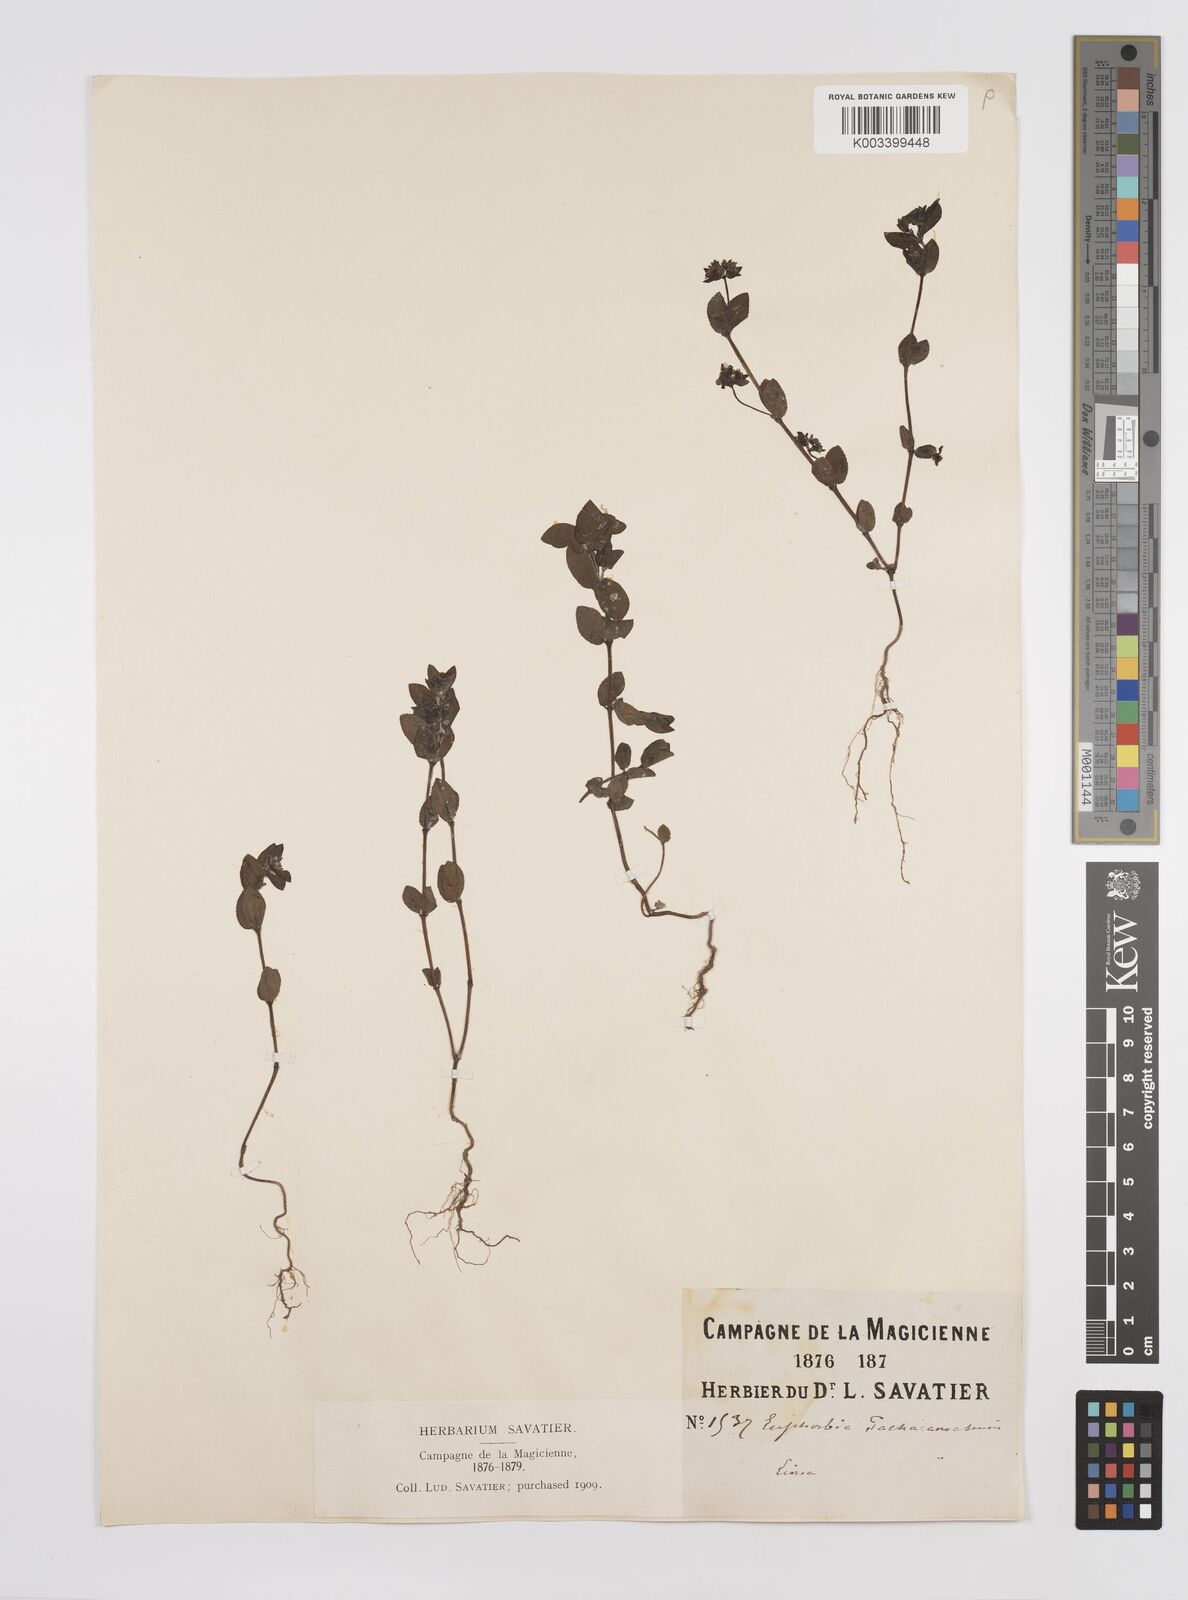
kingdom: Plantae
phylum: Tracheophyta
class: Magnoliopsida
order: Malpighiales
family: Euphorbiaceae
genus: Euphorbia
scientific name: Euphorbia
